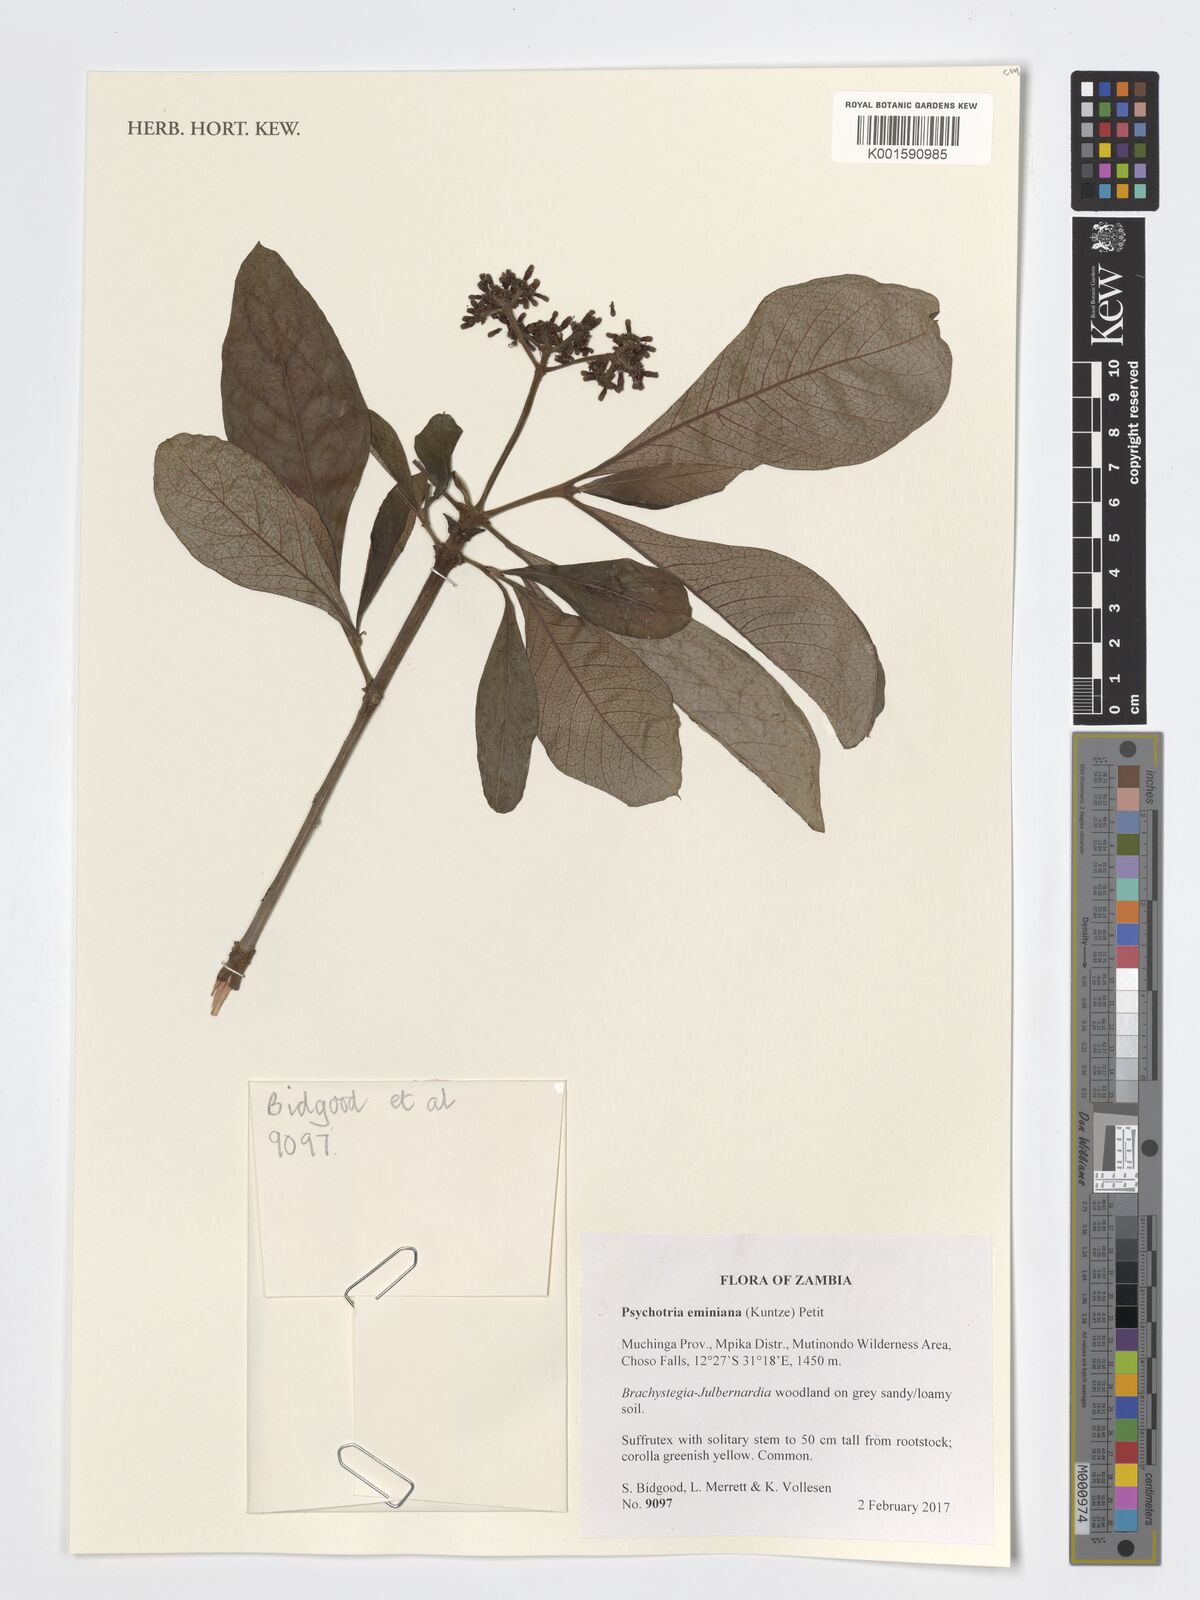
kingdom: Plantae
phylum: Tracheophyta
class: Magnoliopsida
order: Gentianales
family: Rubiaceae
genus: Psychotria
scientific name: Psychotria eminiana
